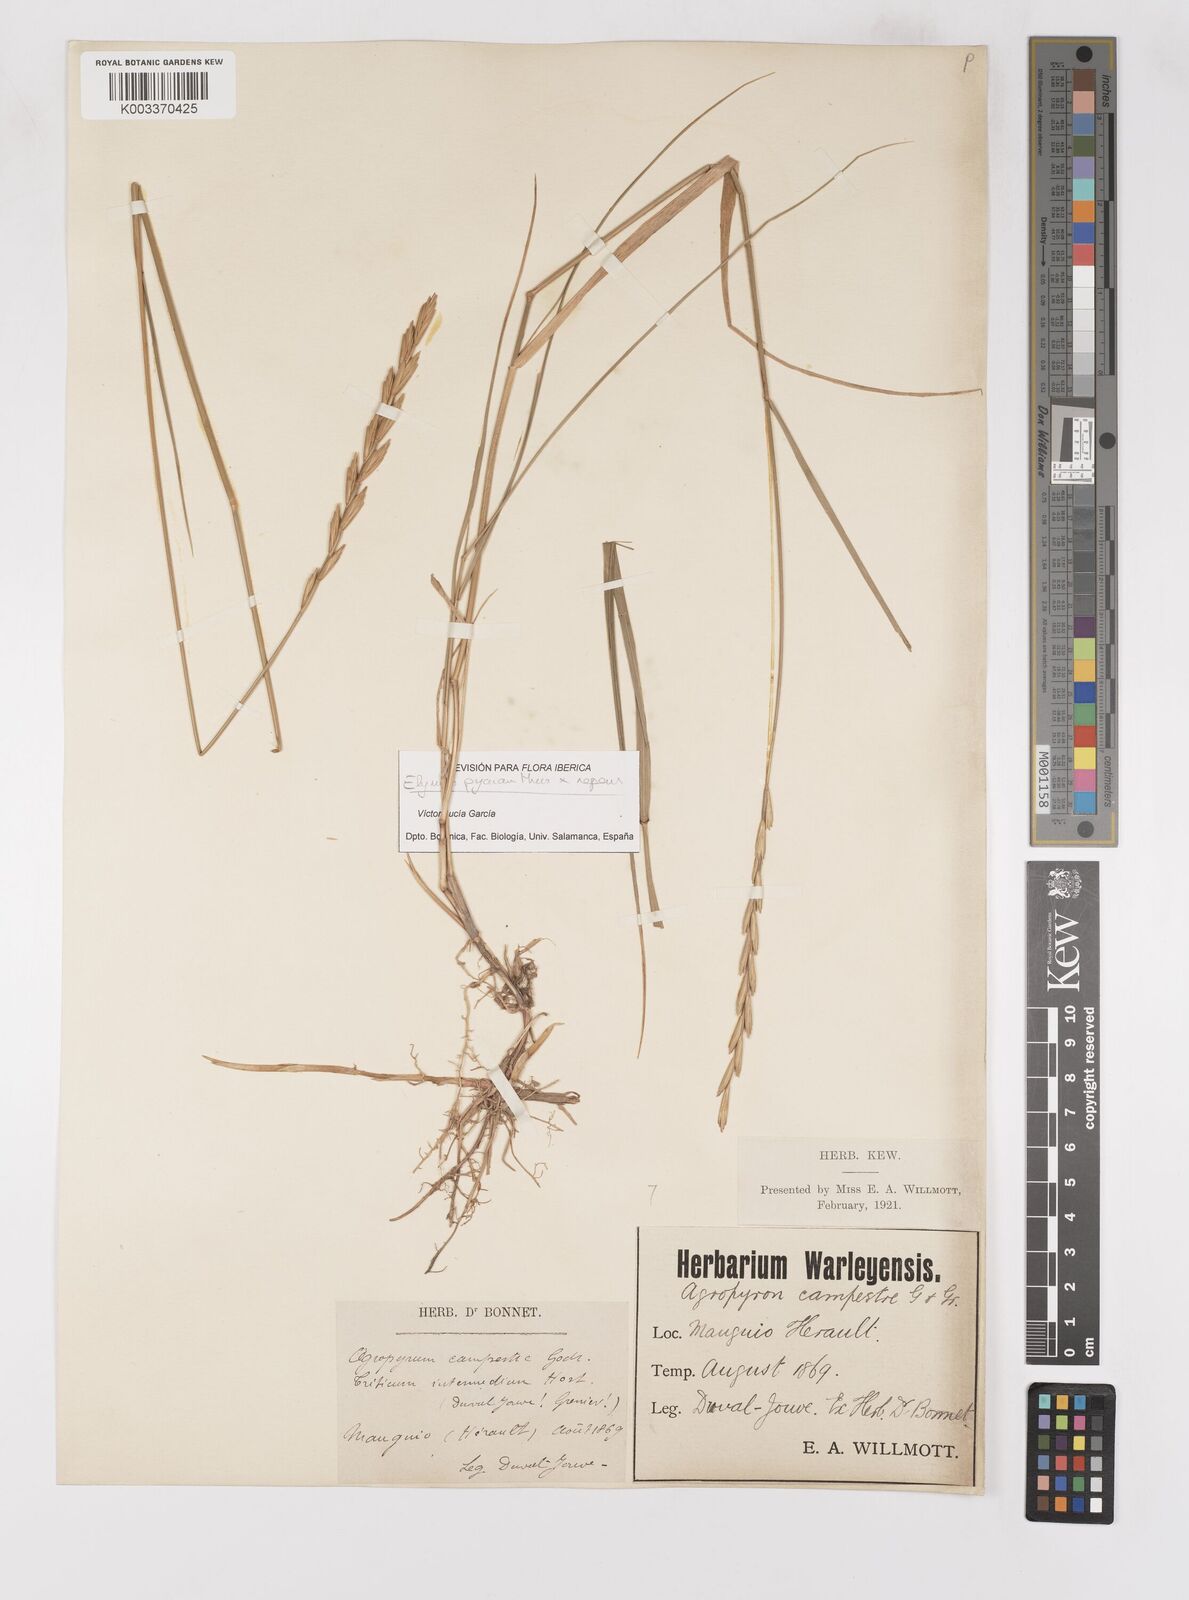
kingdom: Plantae
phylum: Tracheophyta
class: Liliopsida
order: Poales
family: Poaceae
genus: Elymus
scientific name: Elymus oliveri
